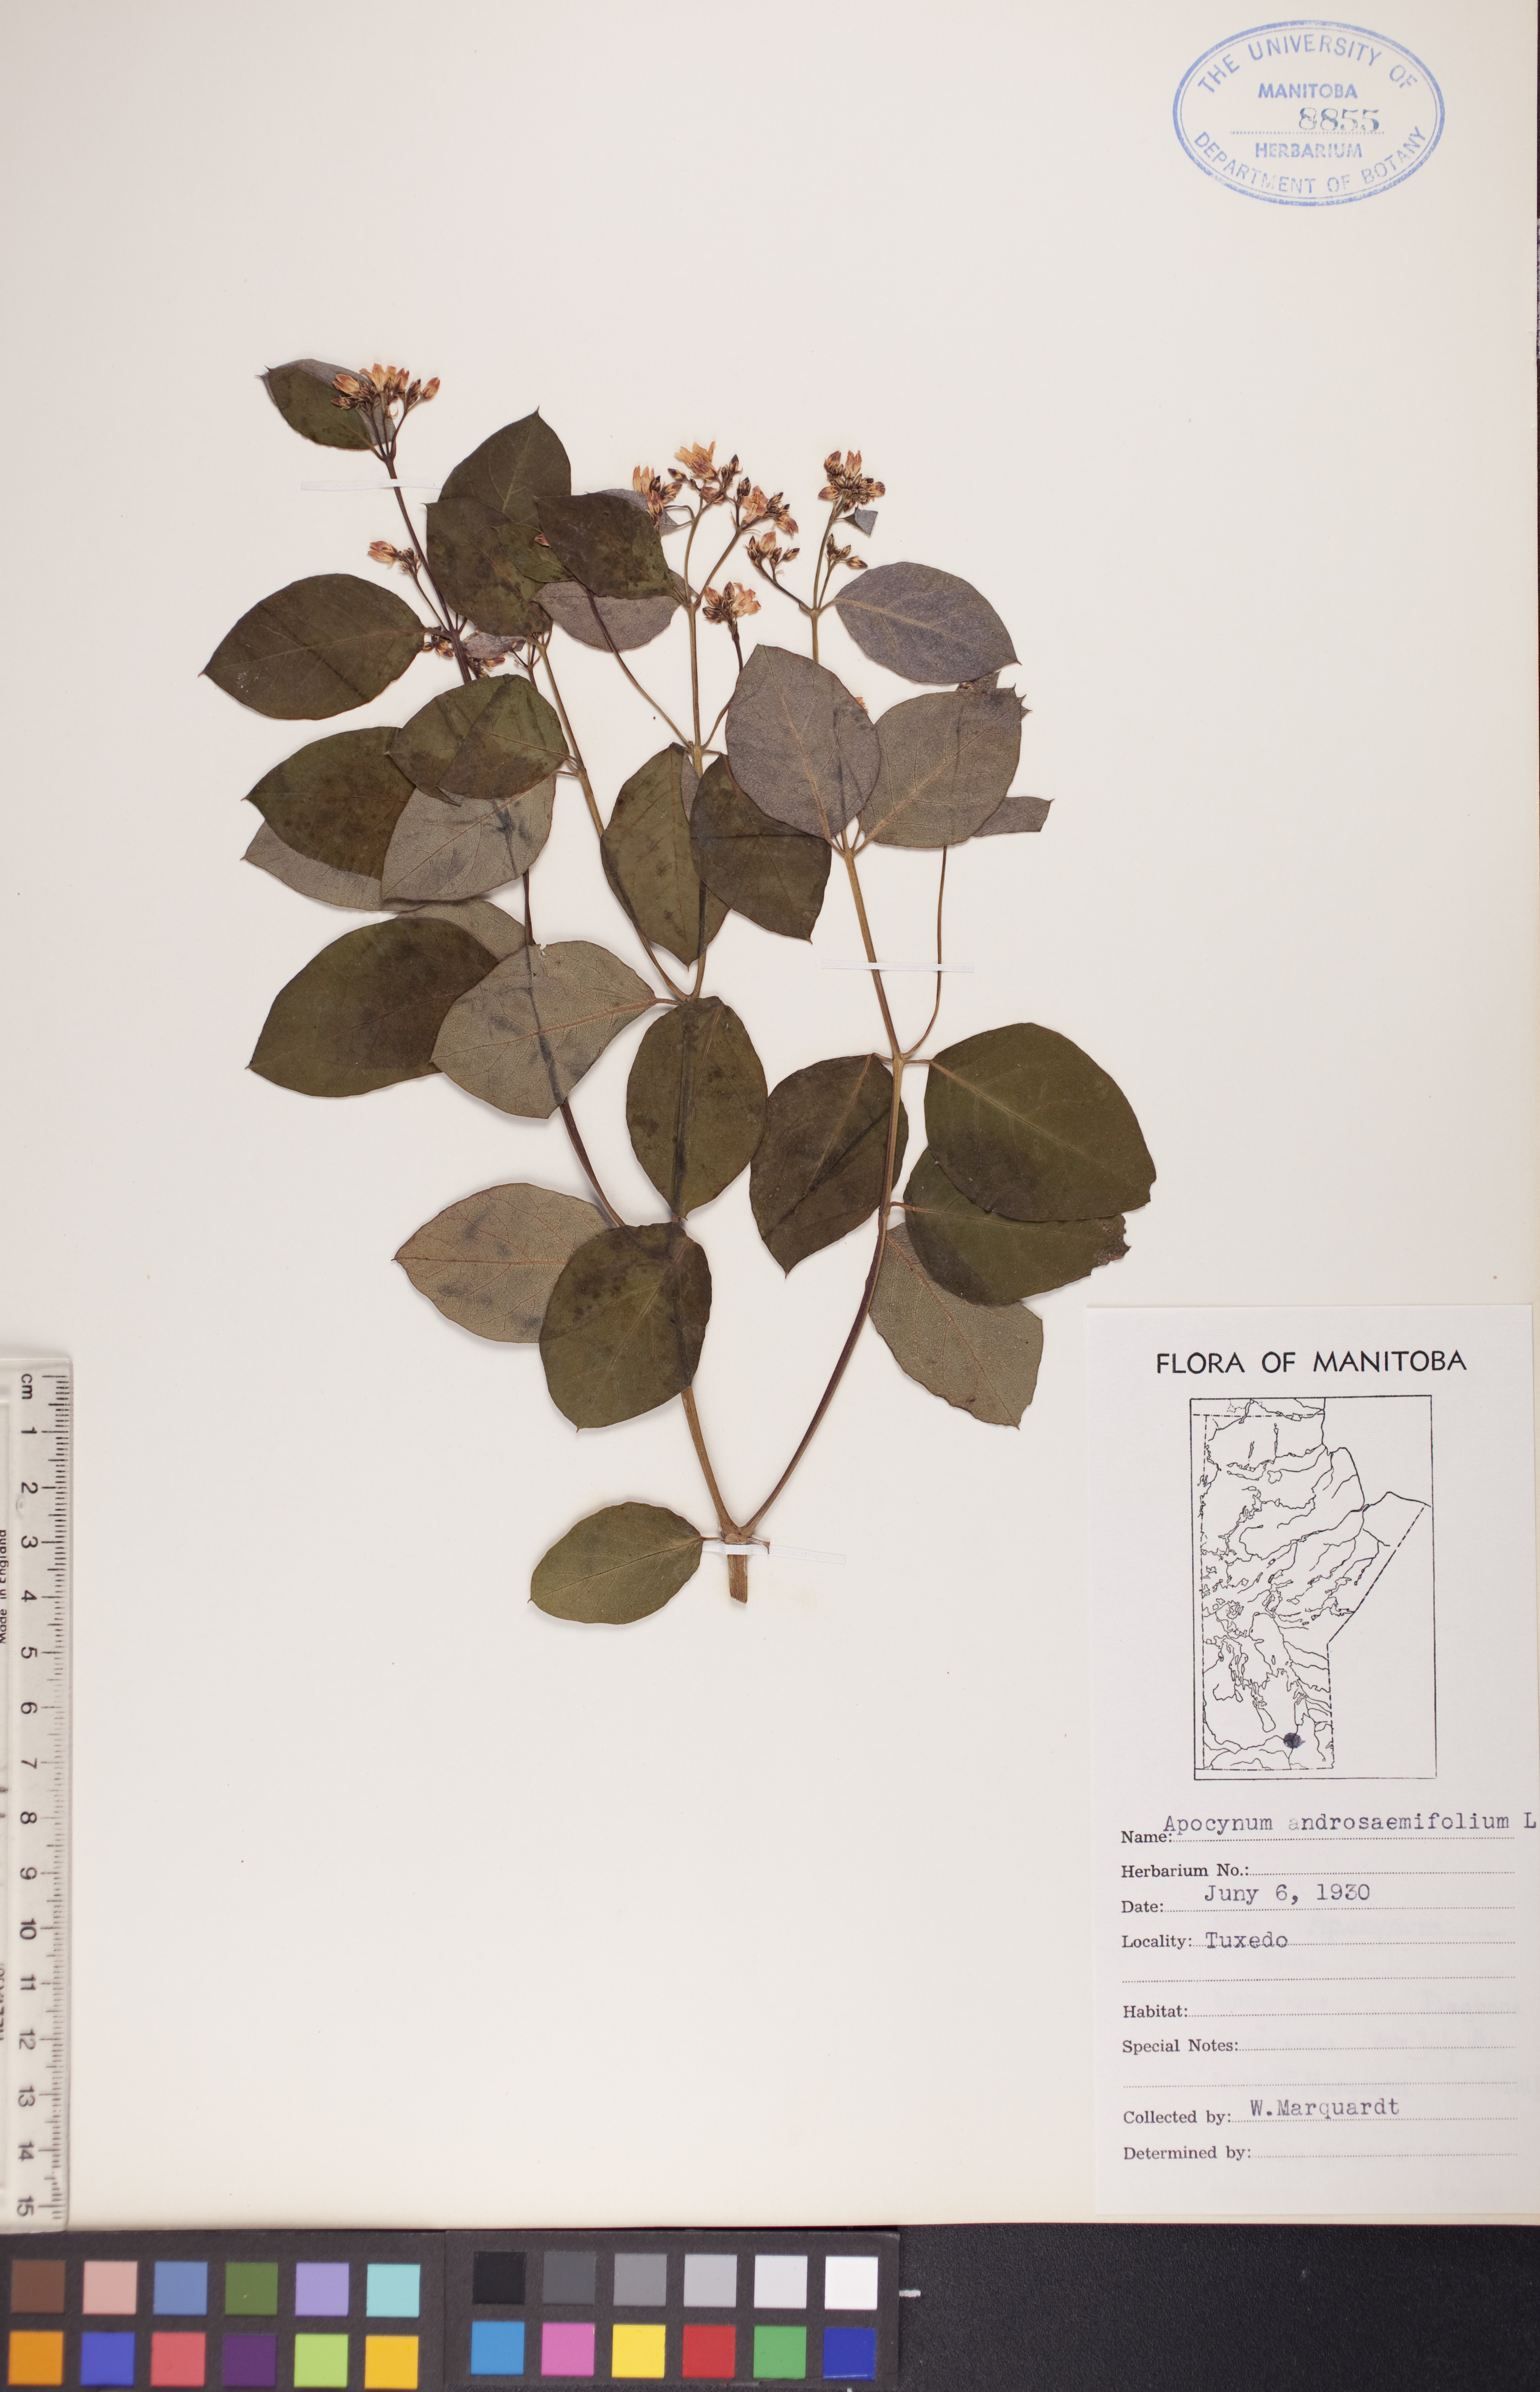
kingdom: Plantae
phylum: Tracheophyta
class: Magnoliopsida
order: Gentianales
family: Apocynaceae
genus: Apocynum
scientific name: Apocynum androsaemifolium
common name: Spreading dogbane
